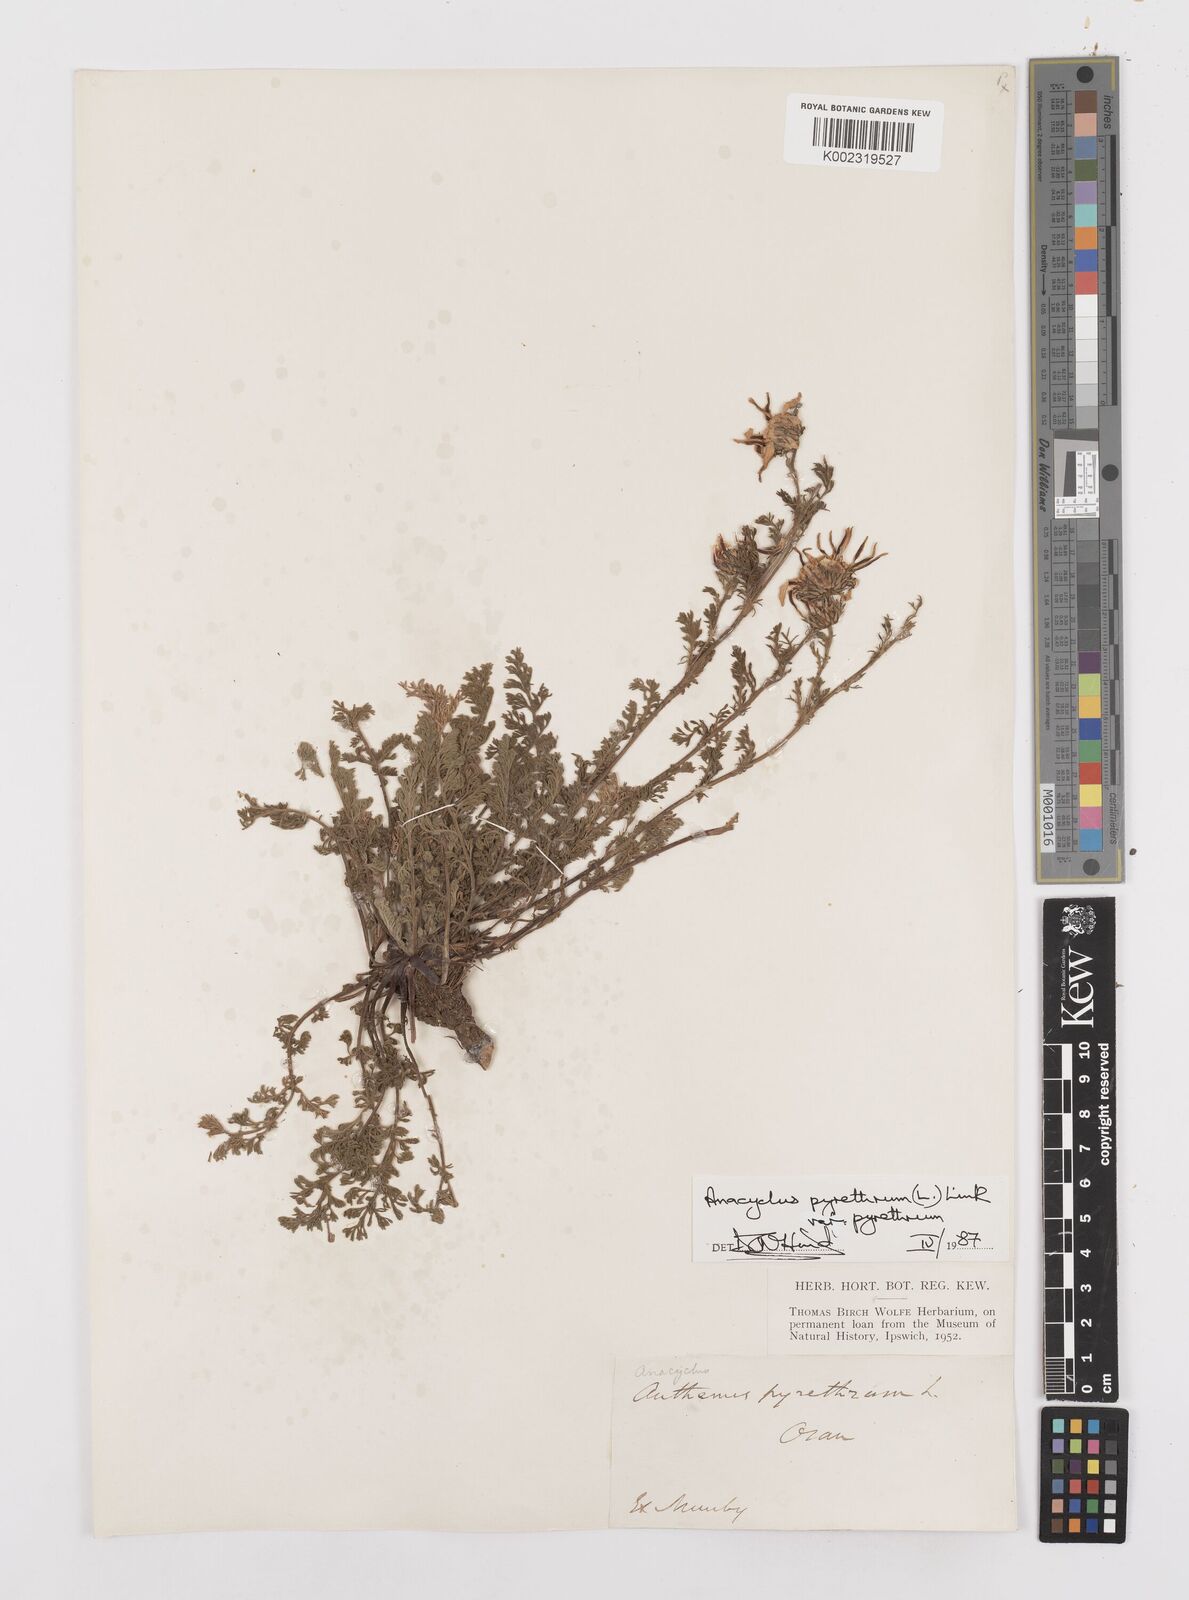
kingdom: Plantae
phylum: Tracheophyta
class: Magnoliopsida
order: Asterales
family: Asteraceae
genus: Anacyclus
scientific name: Anacyclus pyrethrum
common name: Mt. atlas daisy
